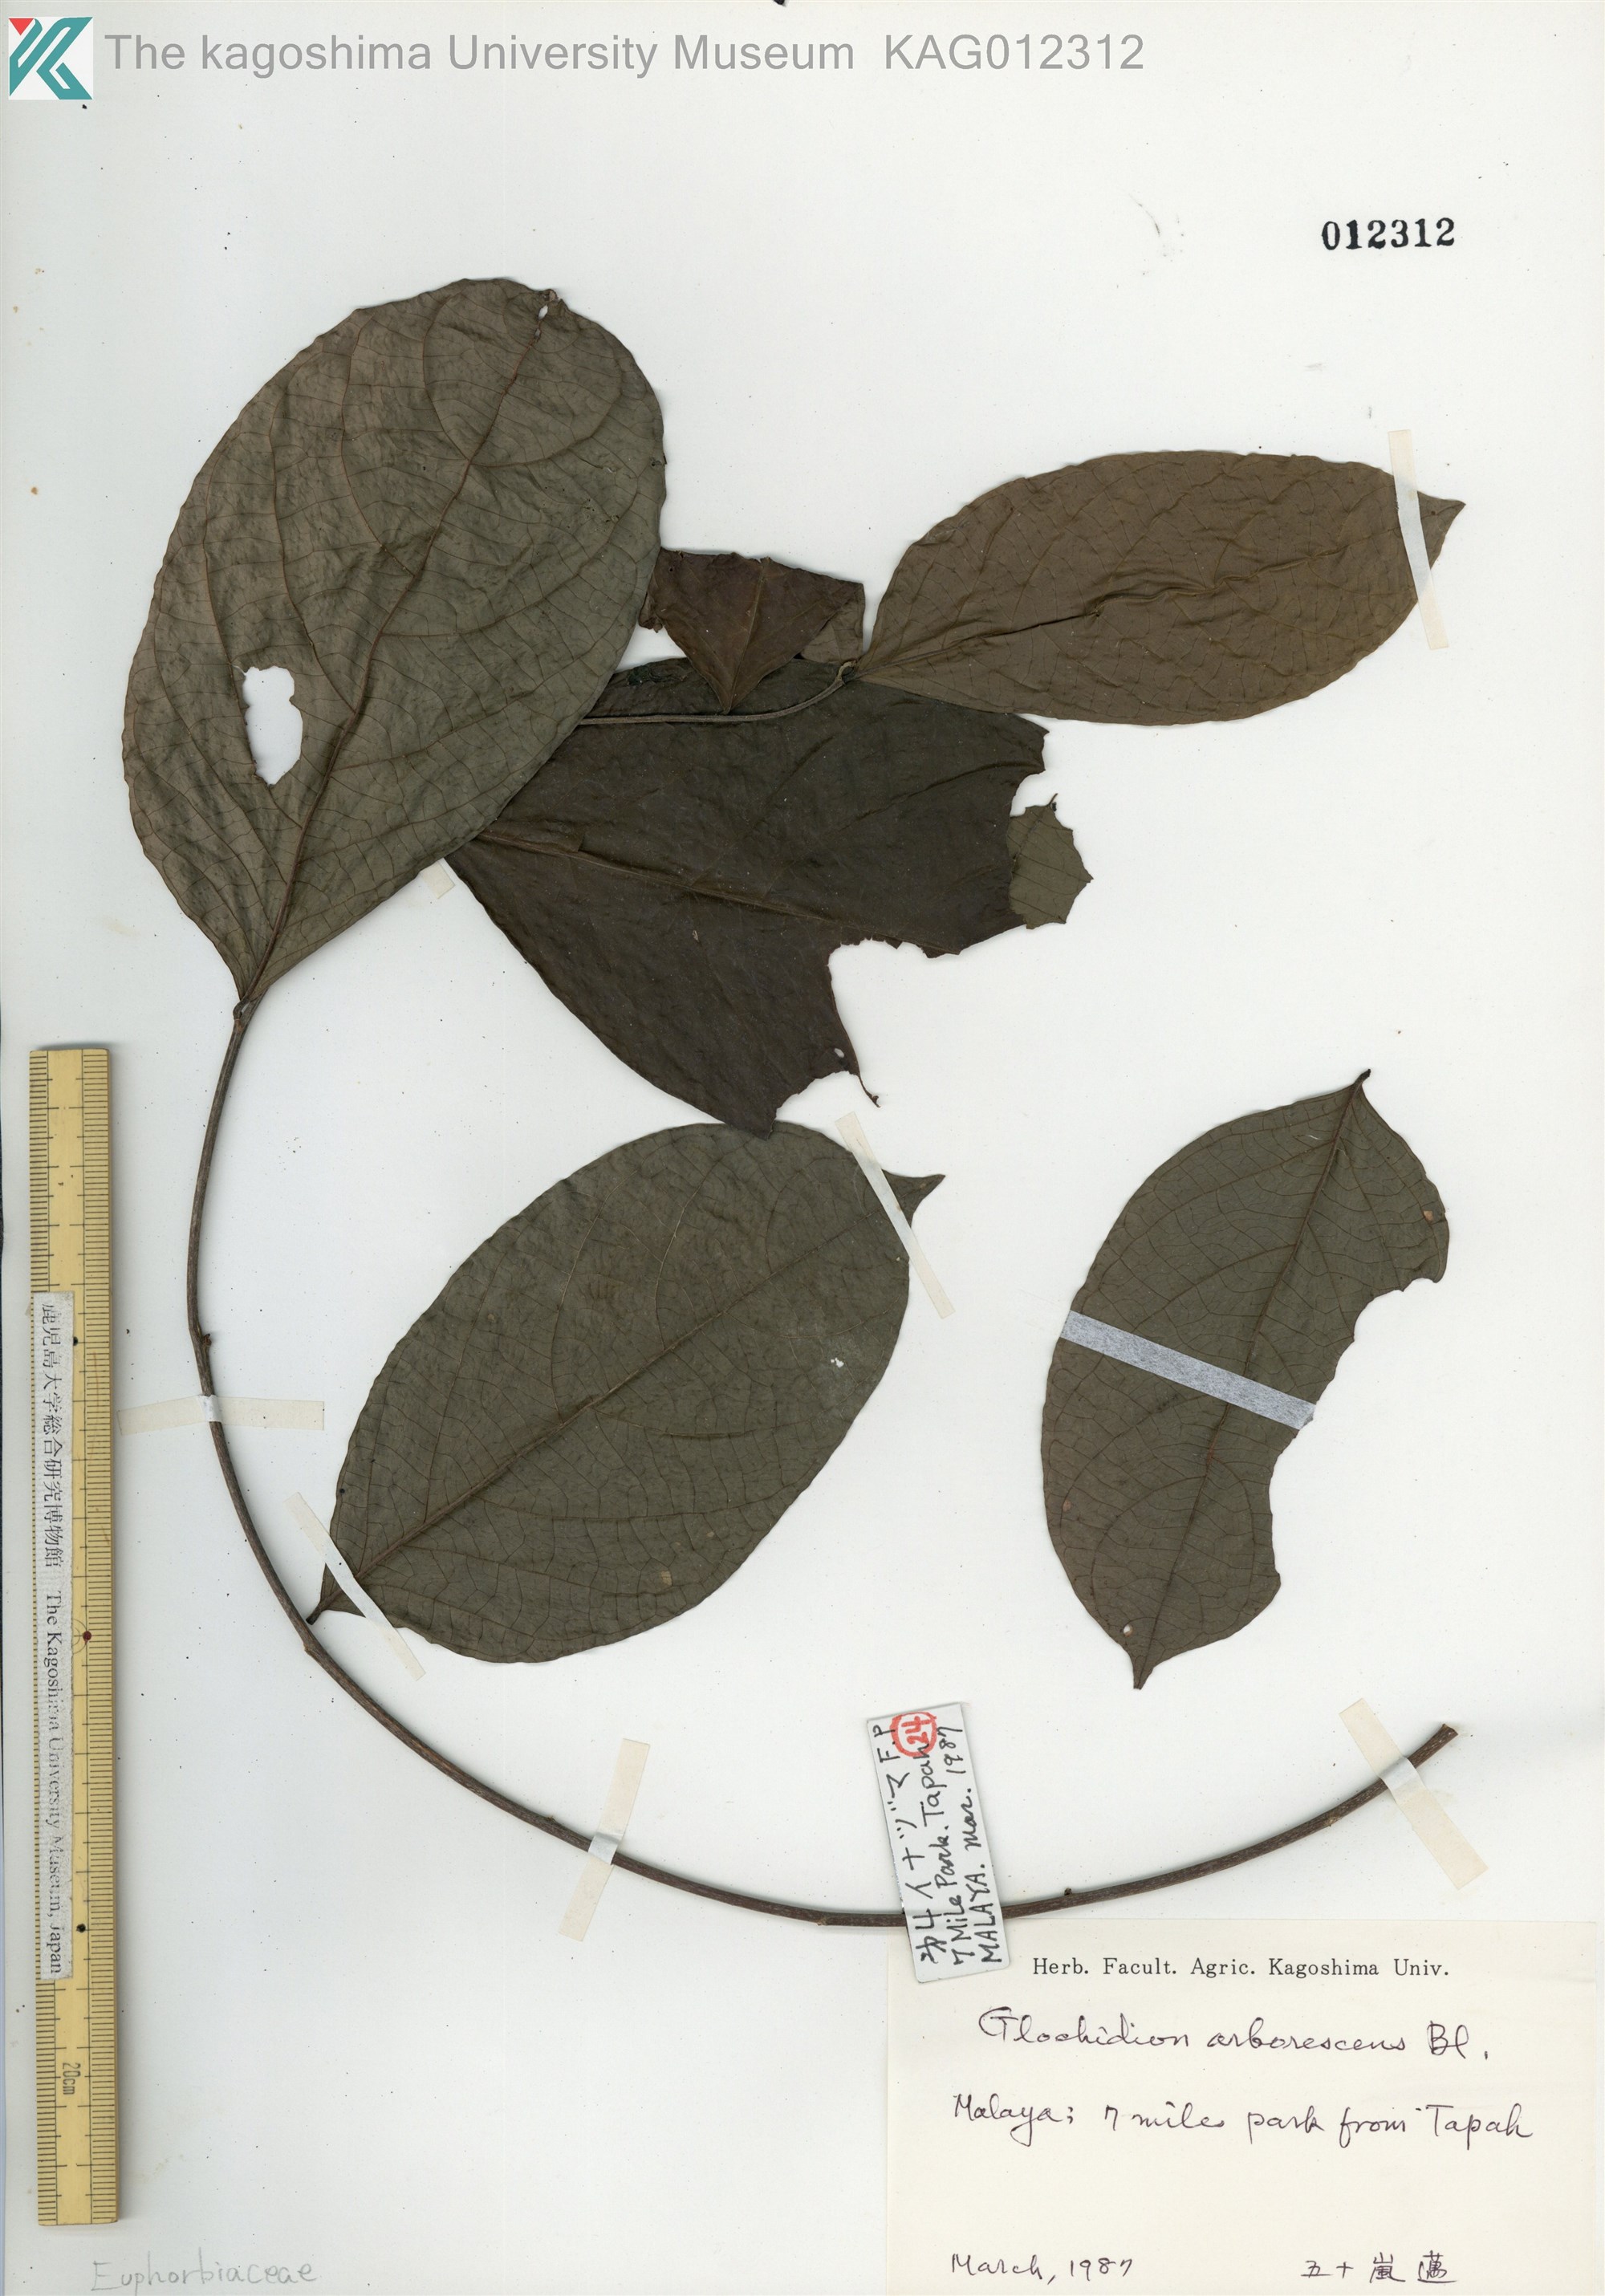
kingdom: Plantae
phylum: Tracheophyta
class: Magnoliopsida
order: Malpighiales
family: Phyllanthaceae
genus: Glochidion
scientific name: Glochidion zeylanicum
